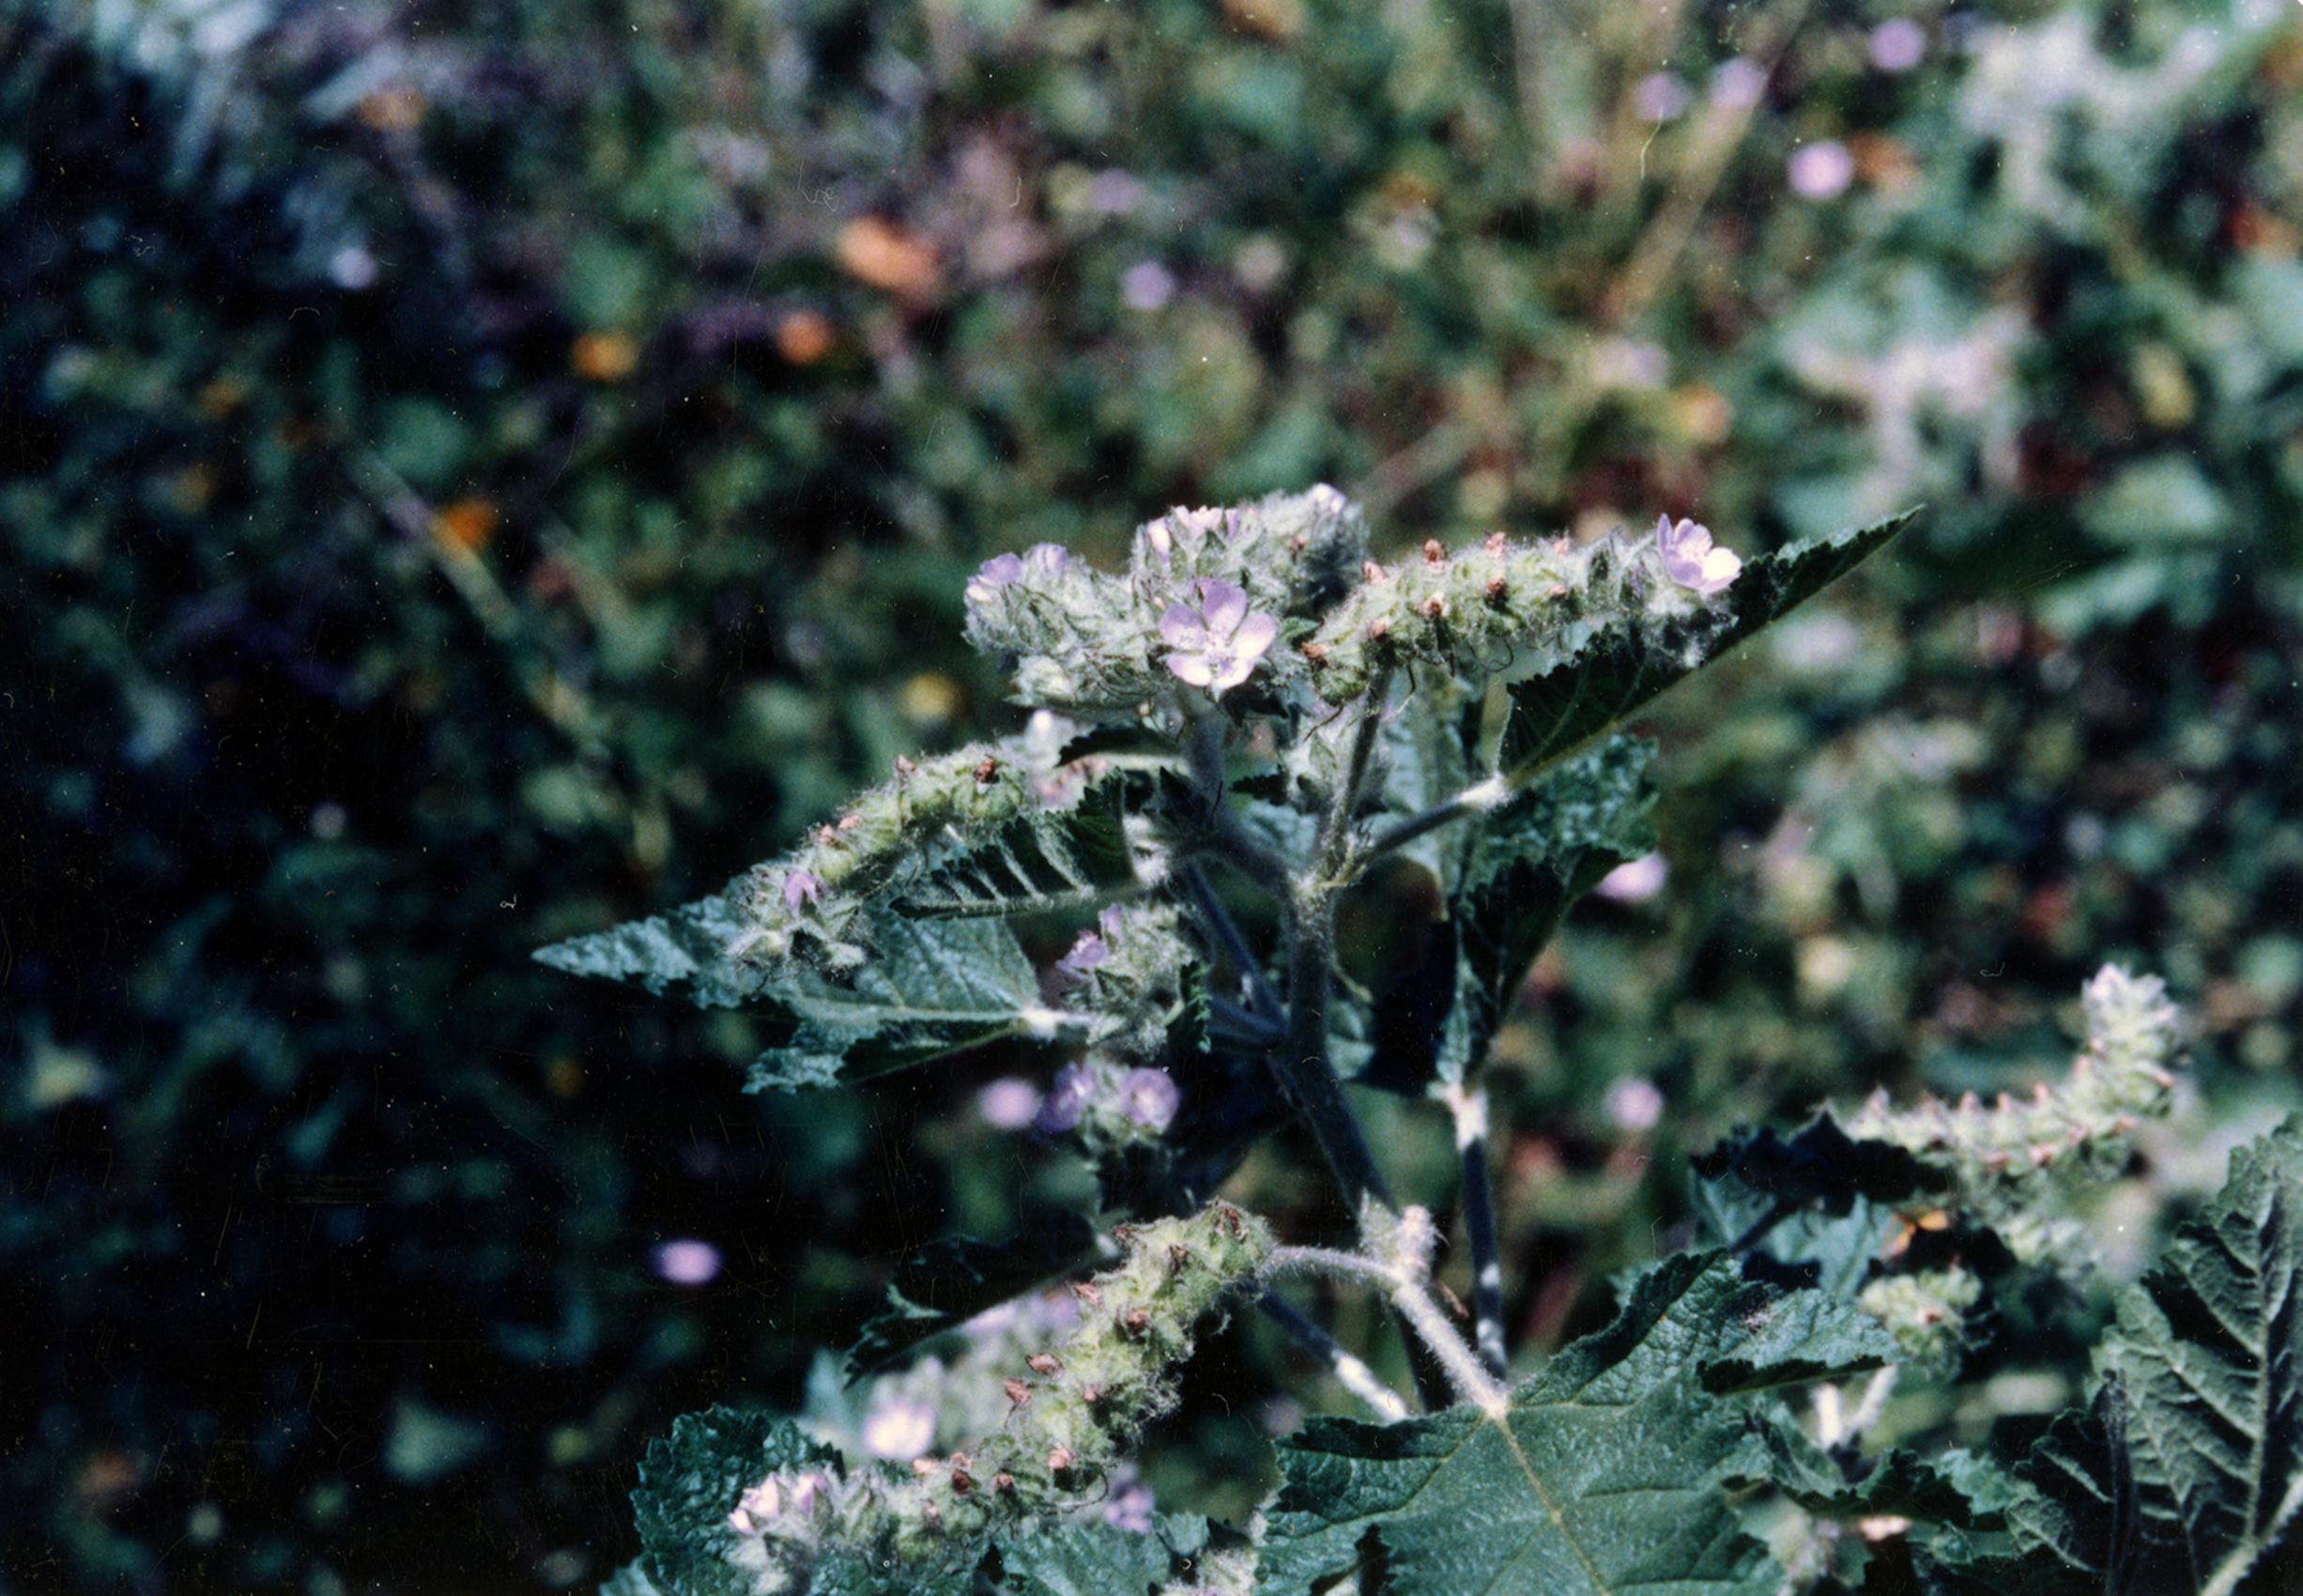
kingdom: Plantae
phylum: Tracheophyta
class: Magnoliopsida
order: Malvales
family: Malvaceae
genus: Tarasa
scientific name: Tarasa cardenasii
